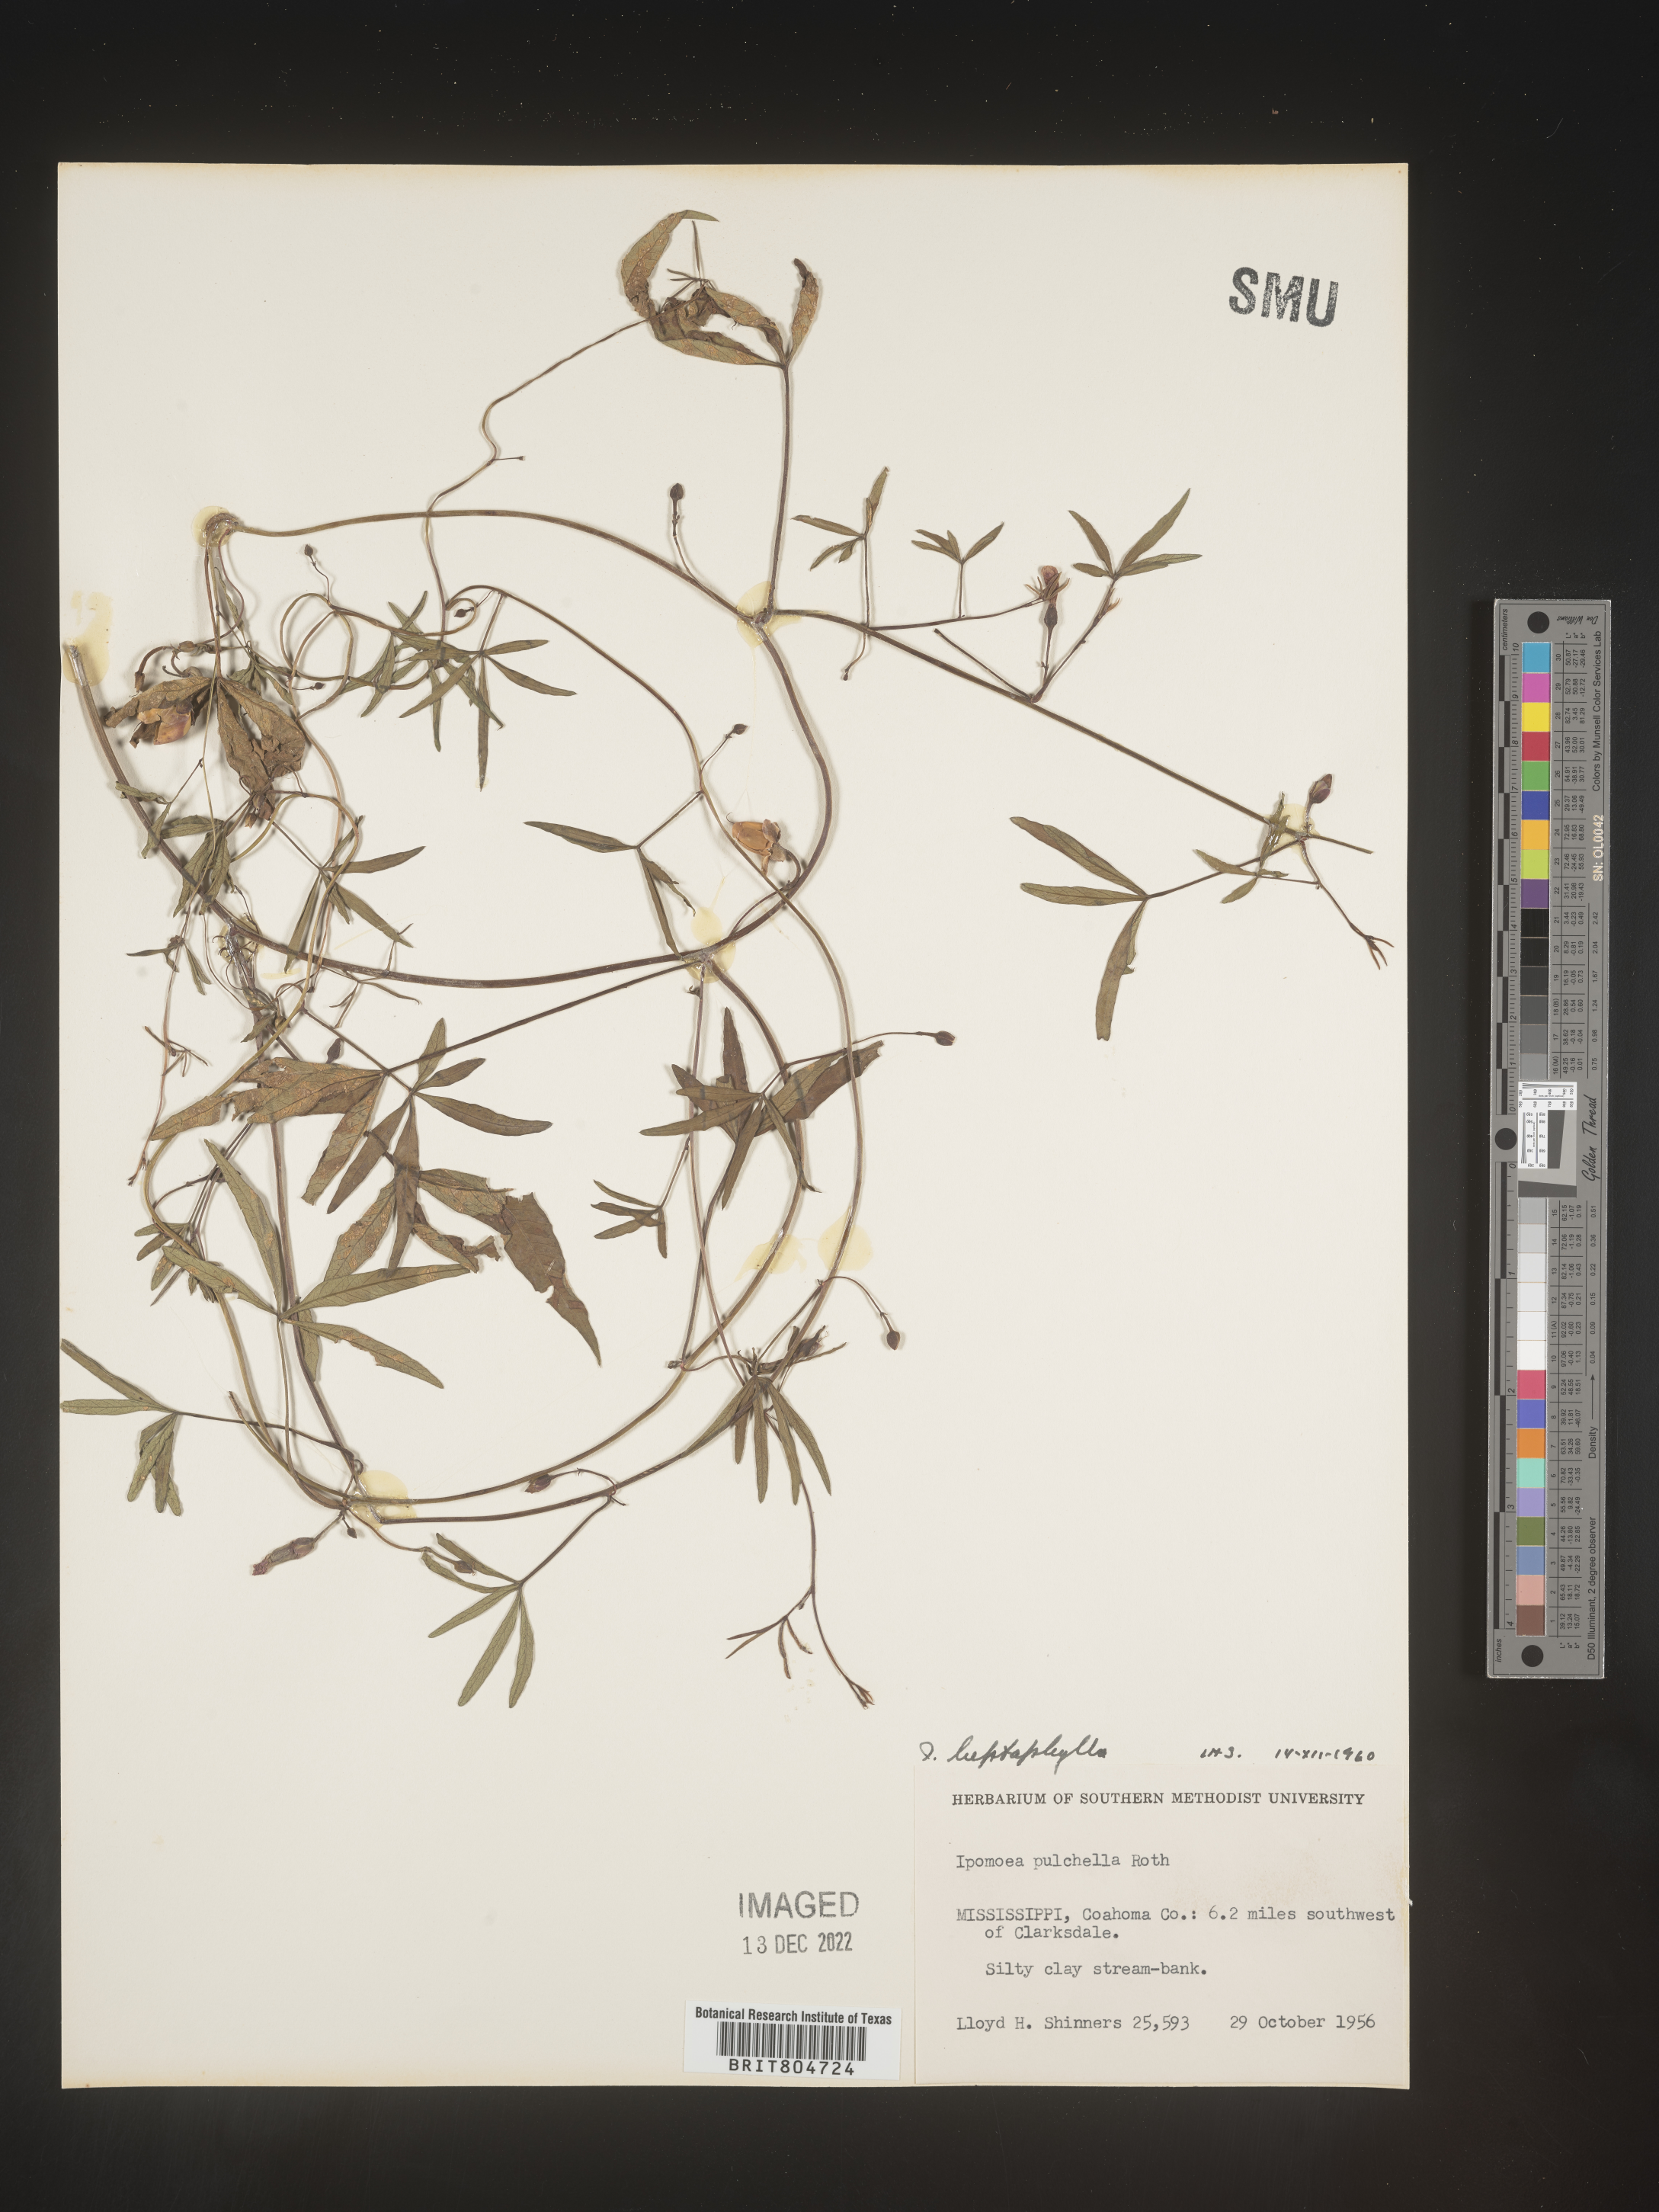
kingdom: Plantae
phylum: Tracheophyta
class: Magnoliopsida
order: Solanales
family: Convolvulaceae
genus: Ipomoea
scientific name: Ipomoea tenuipes
